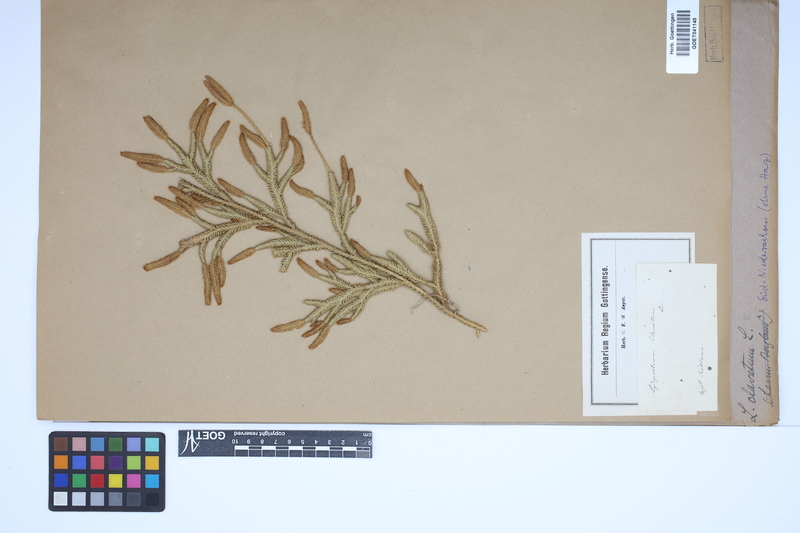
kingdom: Plantae
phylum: Tracheophyta
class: Lycopodiopsida
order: Lycopodiales
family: Lycopodiaceae
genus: Lycopodium
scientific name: Lycopodium clavatum
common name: Stag's-horn clubmoss
